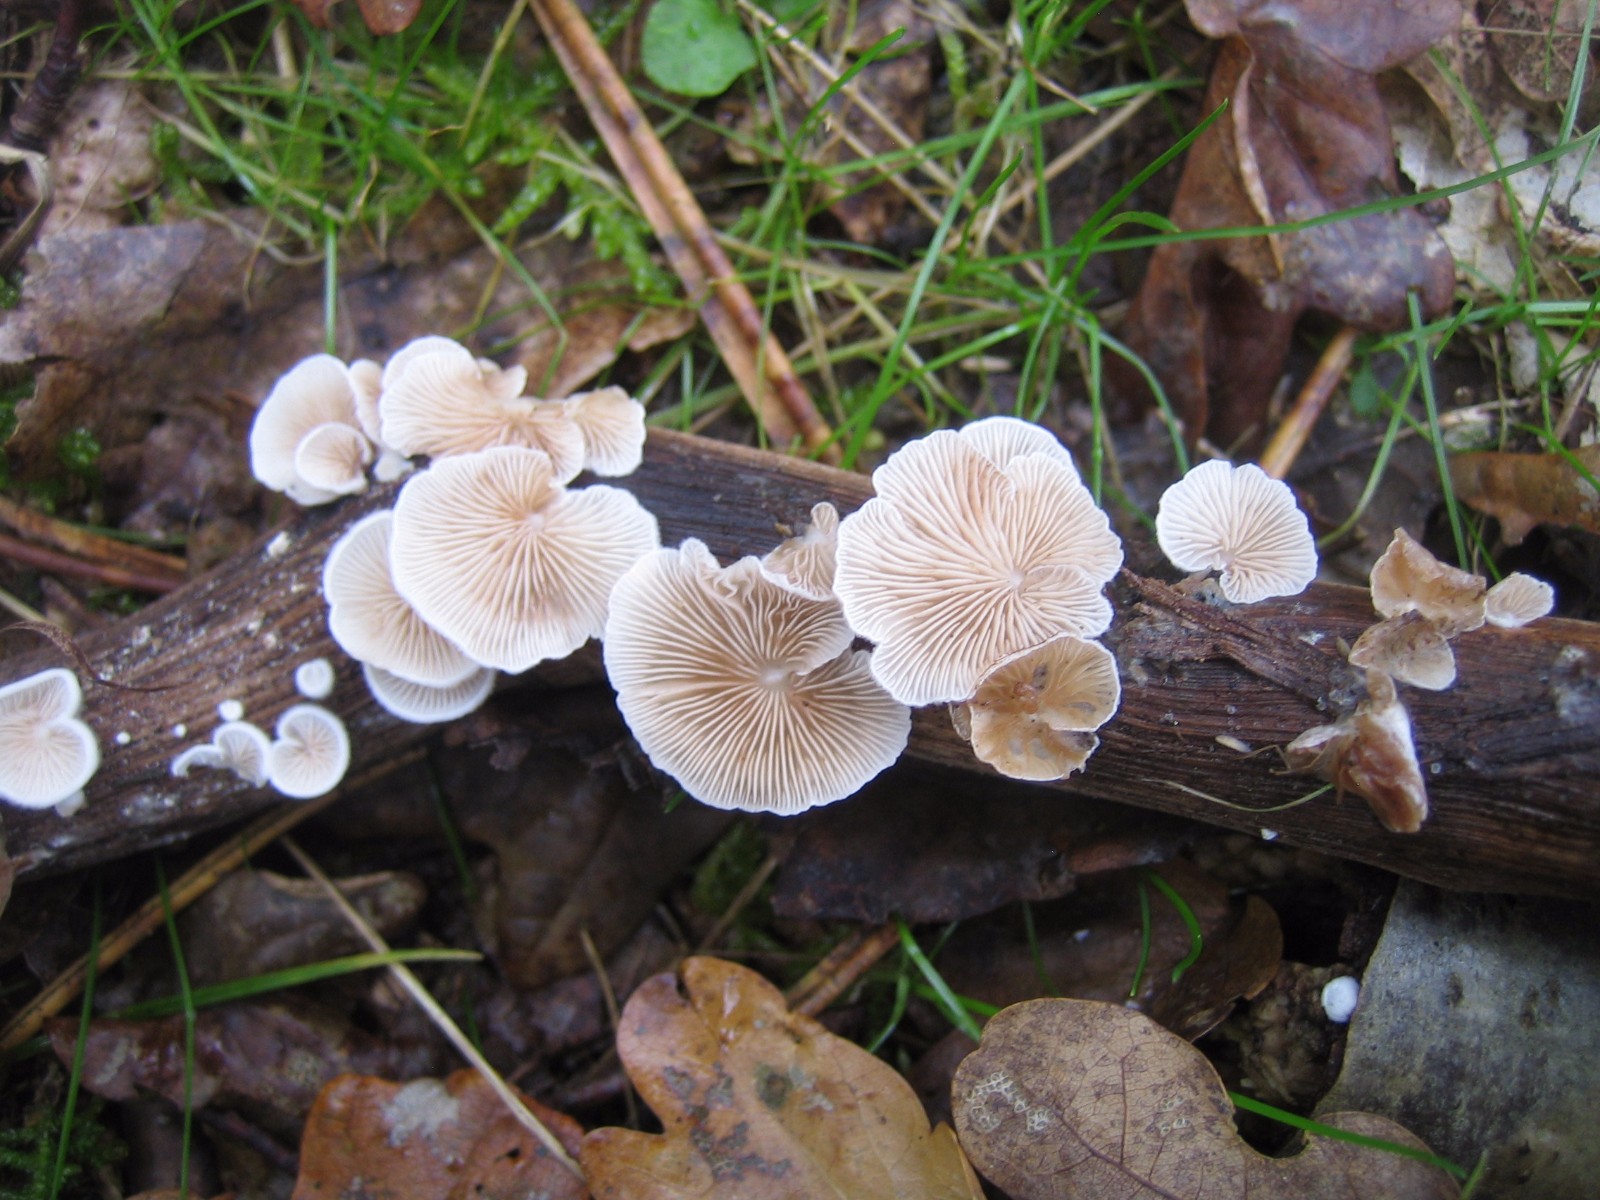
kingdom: Fungi
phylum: Basidiomycota
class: Agaricomycetes
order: Agaricales
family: Crepidotaceae
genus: Crepidotus
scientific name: Crepidotus
